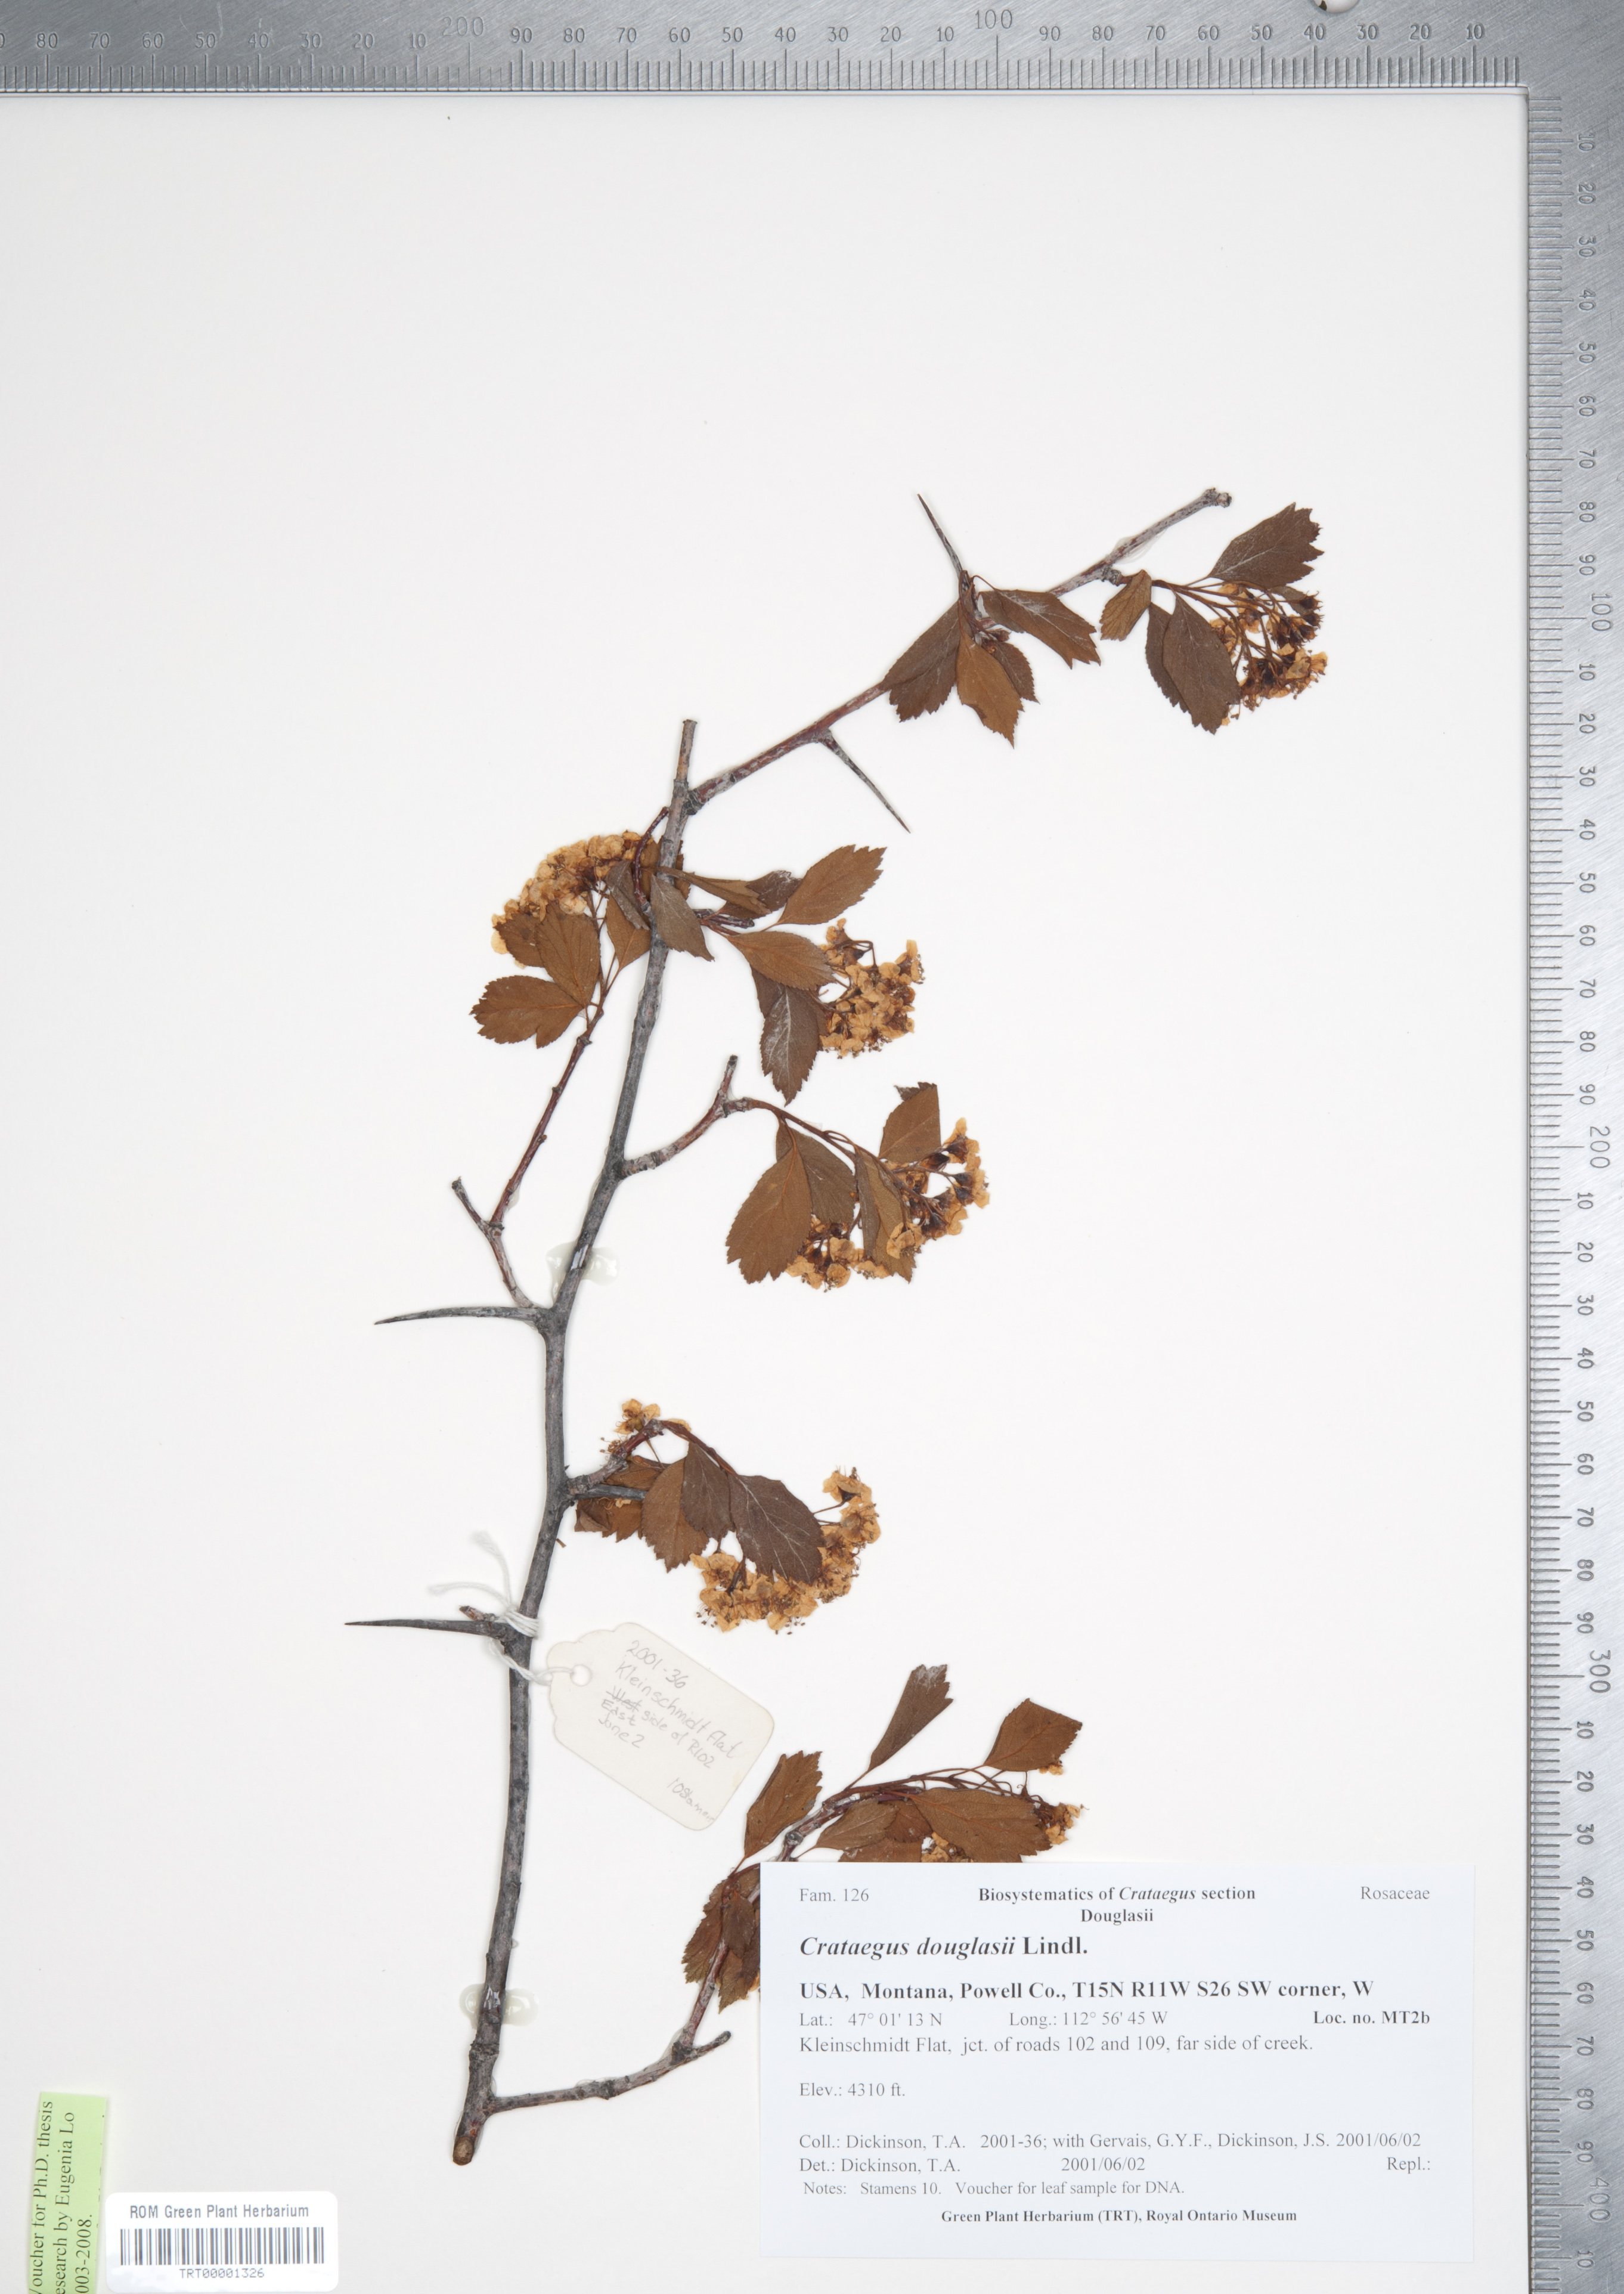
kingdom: Plantae
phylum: Tracheophyta
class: Magnoliopsida
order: Rosales
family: Rosaceae
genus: Crataegus
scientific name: Crataegus douglasii
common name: Black hawthorn
